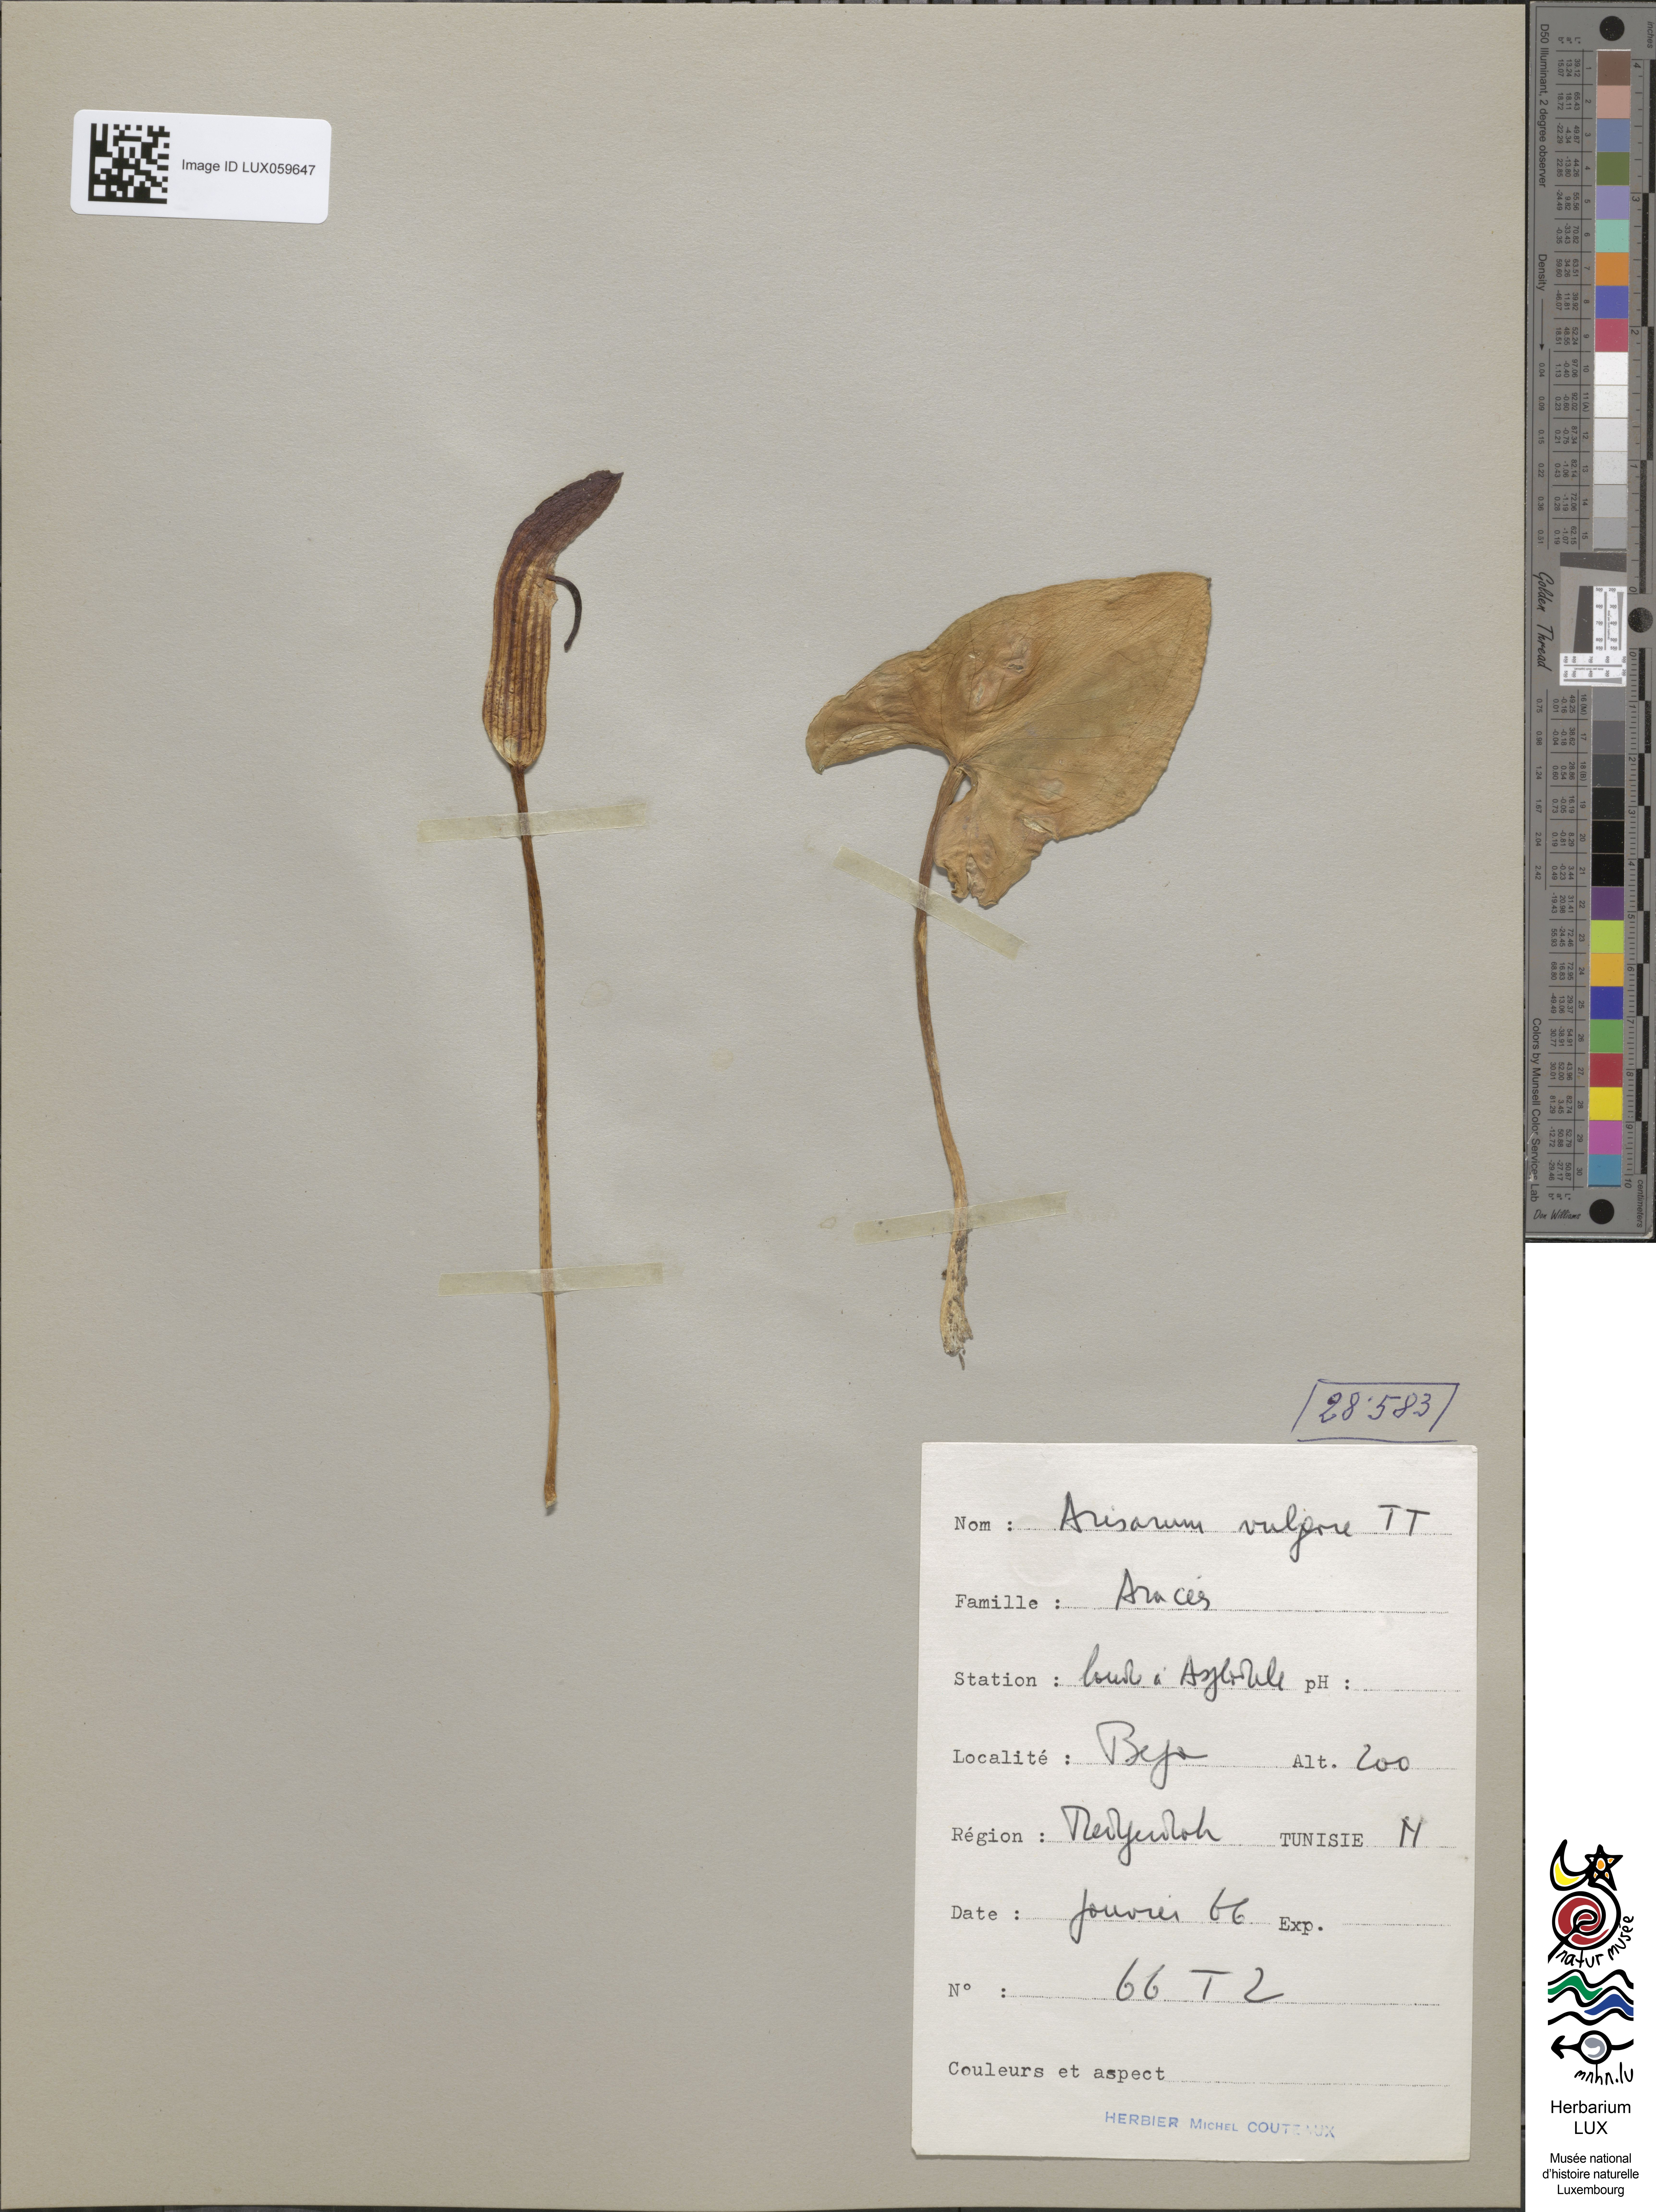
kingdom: Plantae
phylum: Tracheophyta
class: Liliopsida
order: Alismatales
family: Araceae
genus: Arisarum
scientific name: Arisarum vulgare
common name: Common arisarum
